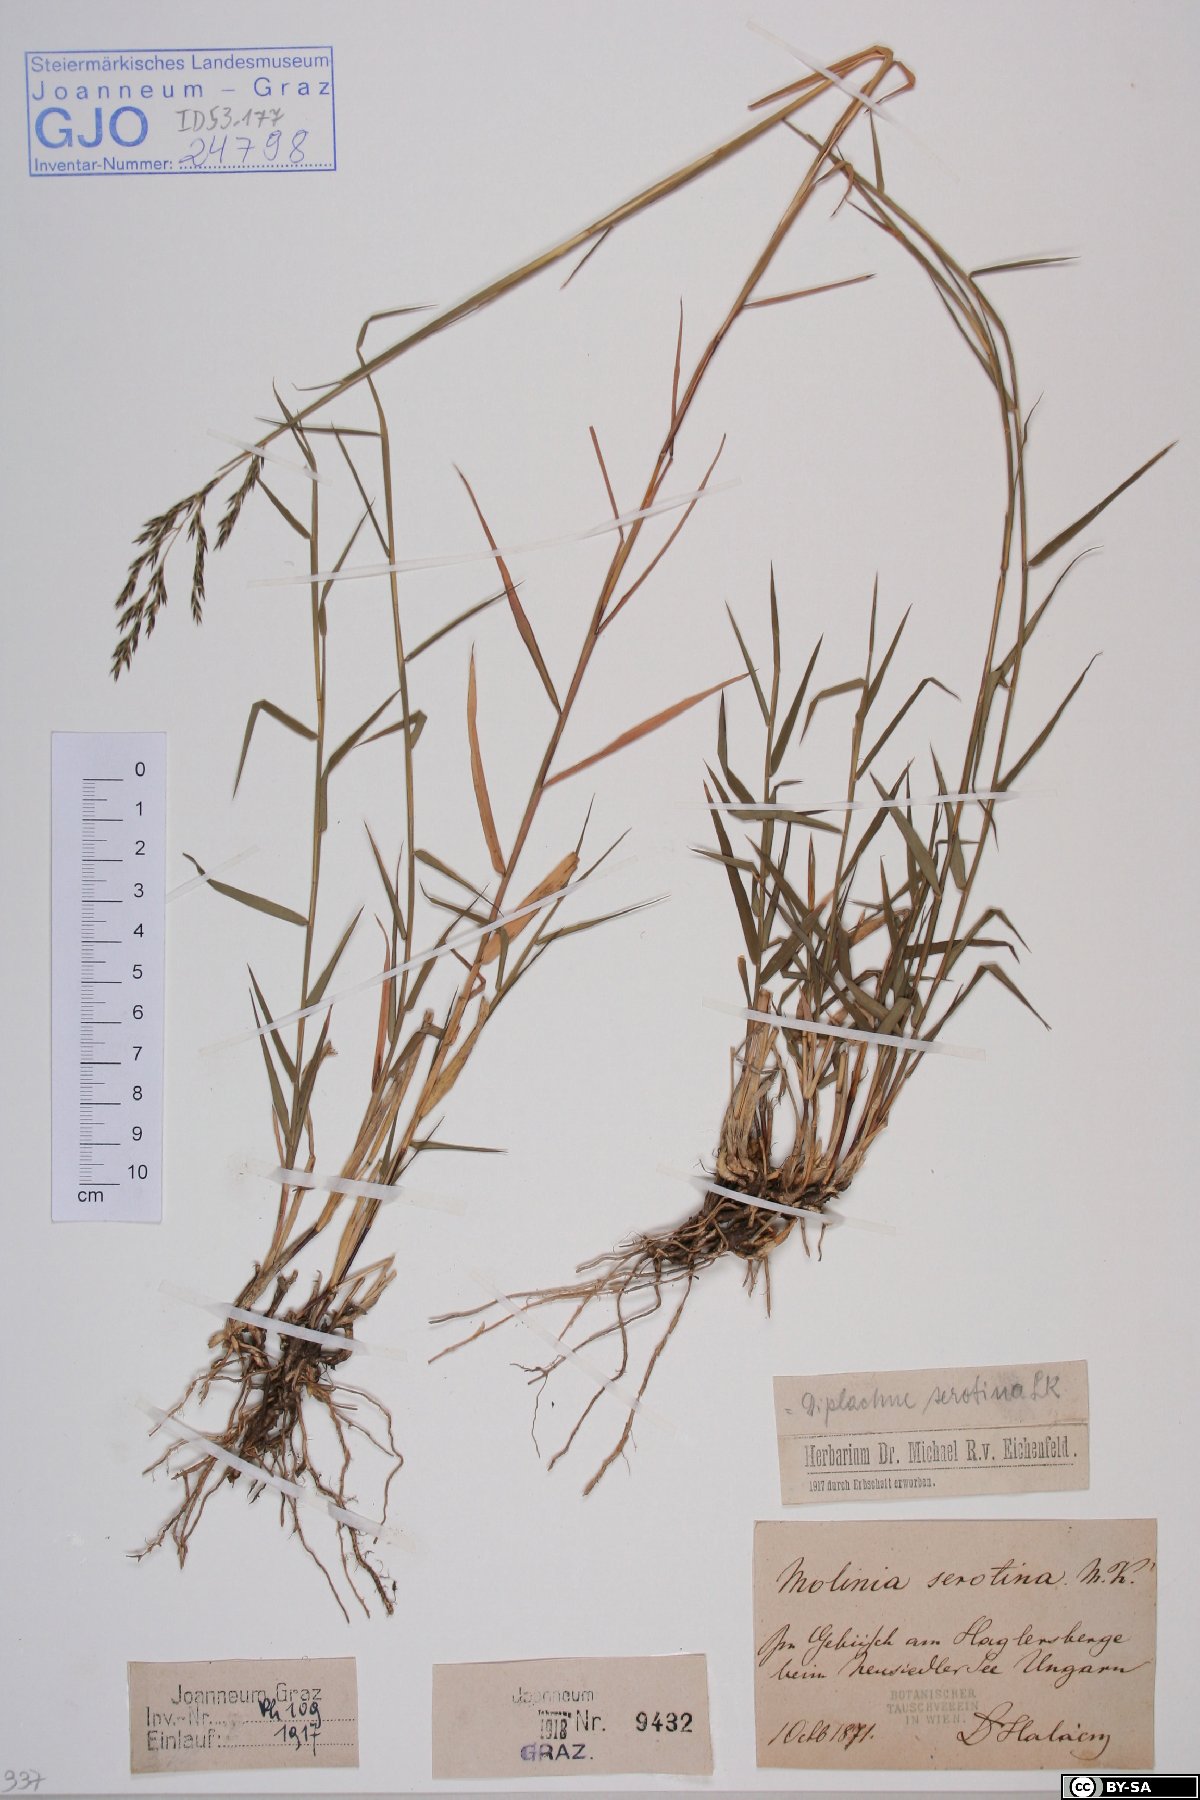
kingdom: Plantae
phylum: Tracheophyta
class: Liliopsida
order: Poales
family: Poaceae
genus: Cleistogenes
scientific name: Cleistogenes serotina
